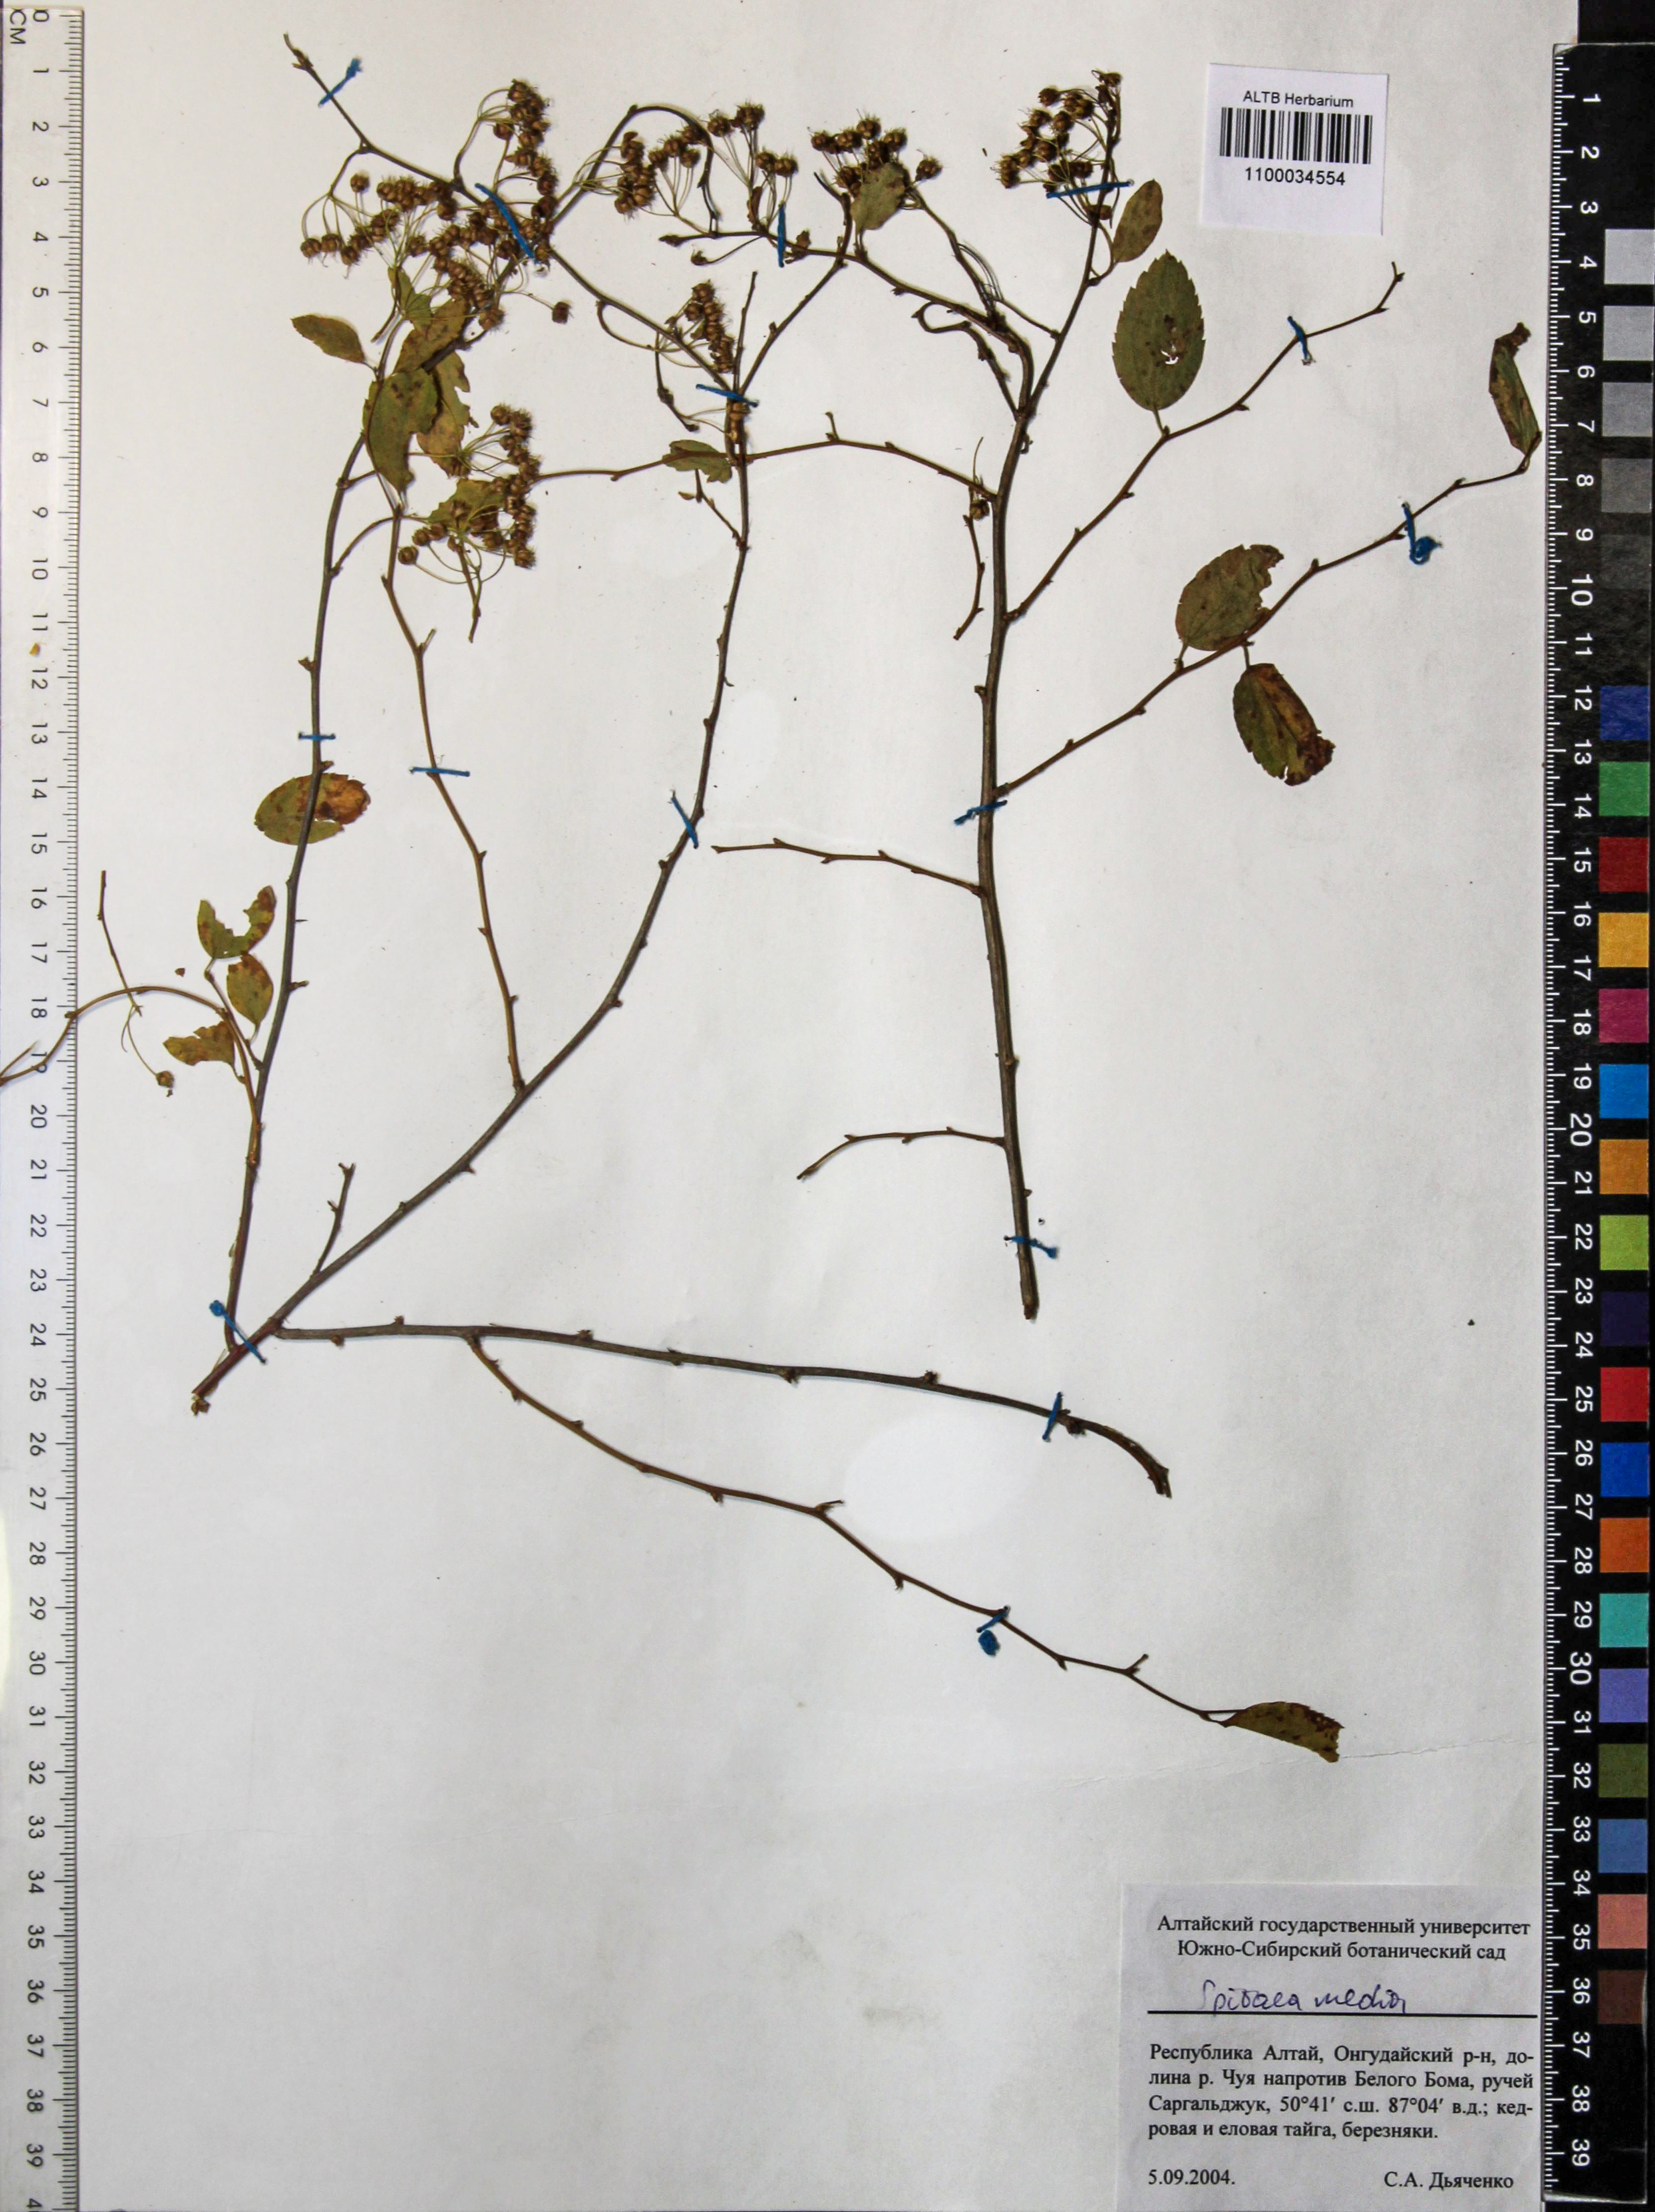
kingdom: Plantae
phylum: Tracheophyta
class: Magnoliopsida
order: Rosales
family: Rosaceae
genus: Spiraea
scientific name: Spiraea media
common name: Russian spiraea
